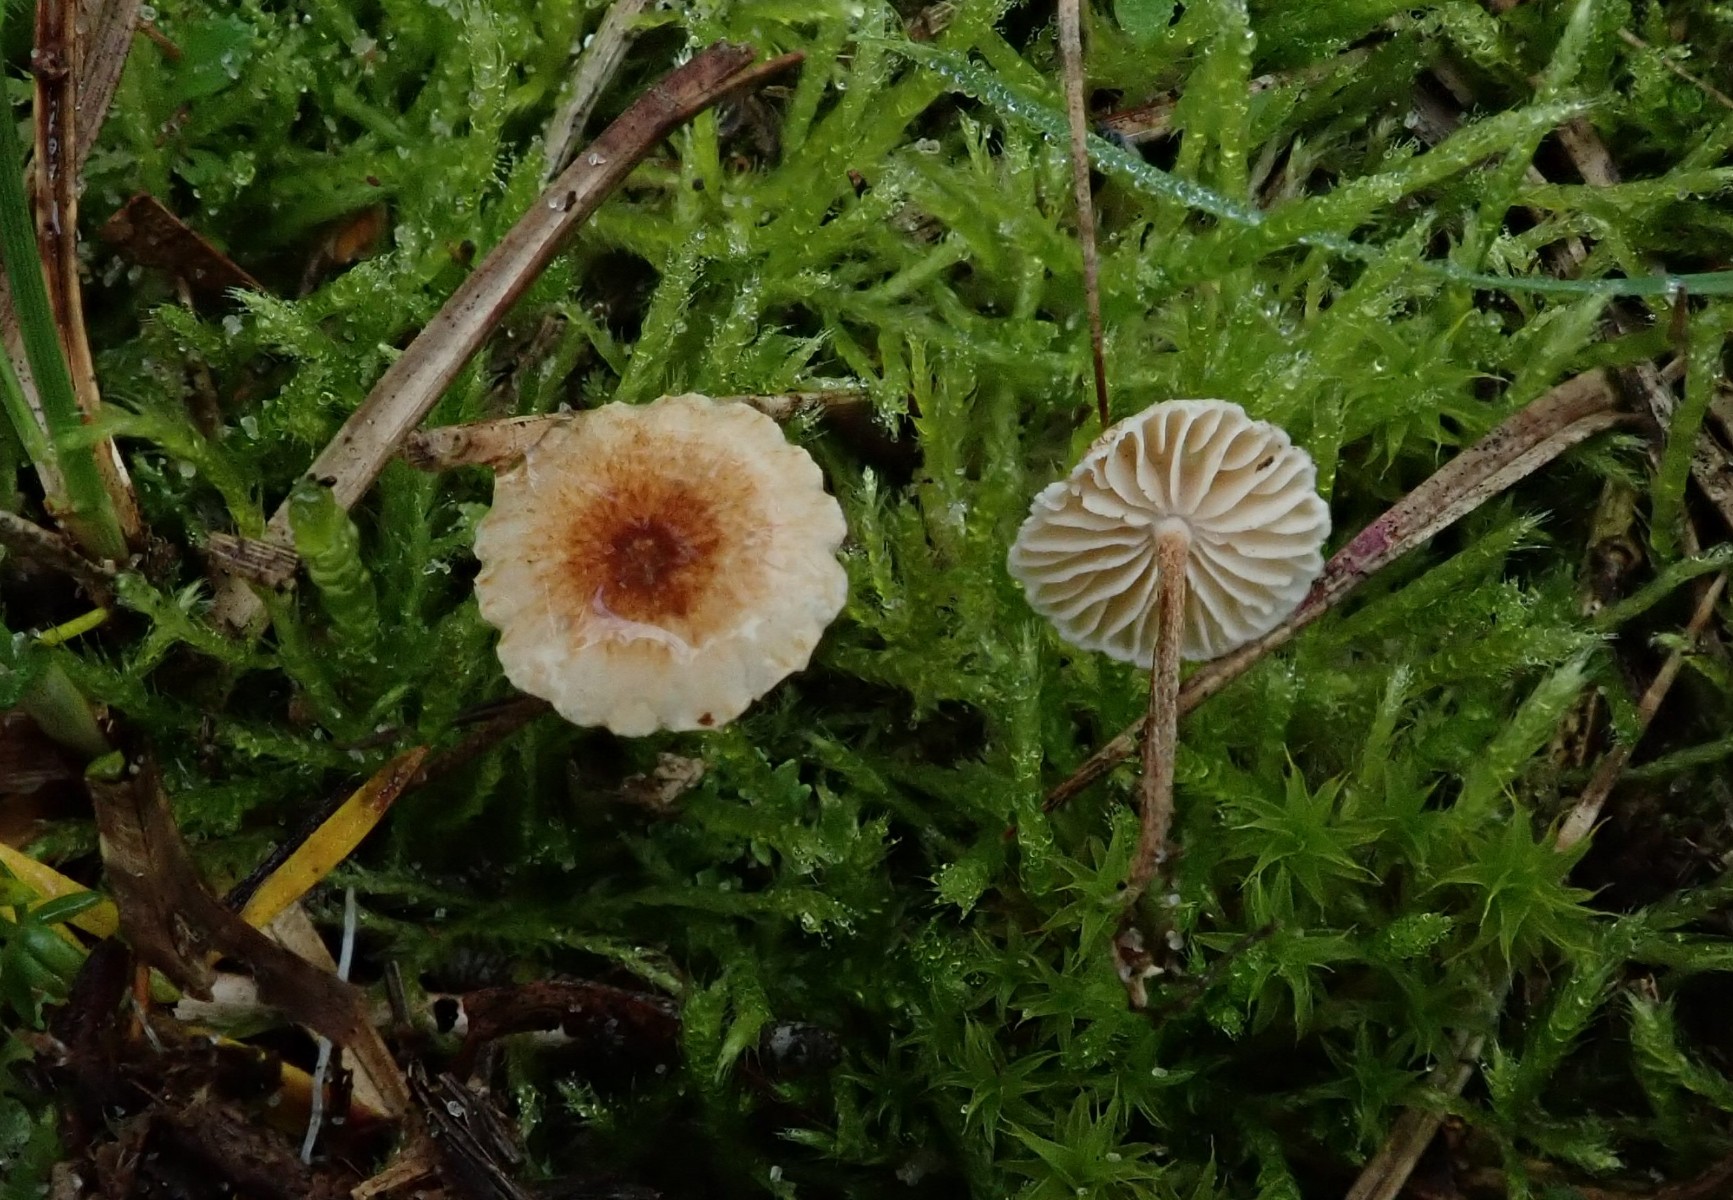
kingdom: Fungi
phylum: Basidiomycota
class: Agaricomycetes
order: Agaricales
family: Marasmiaceae
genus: Crinipellis
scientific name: Crinipellis scabella
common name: børstefod
